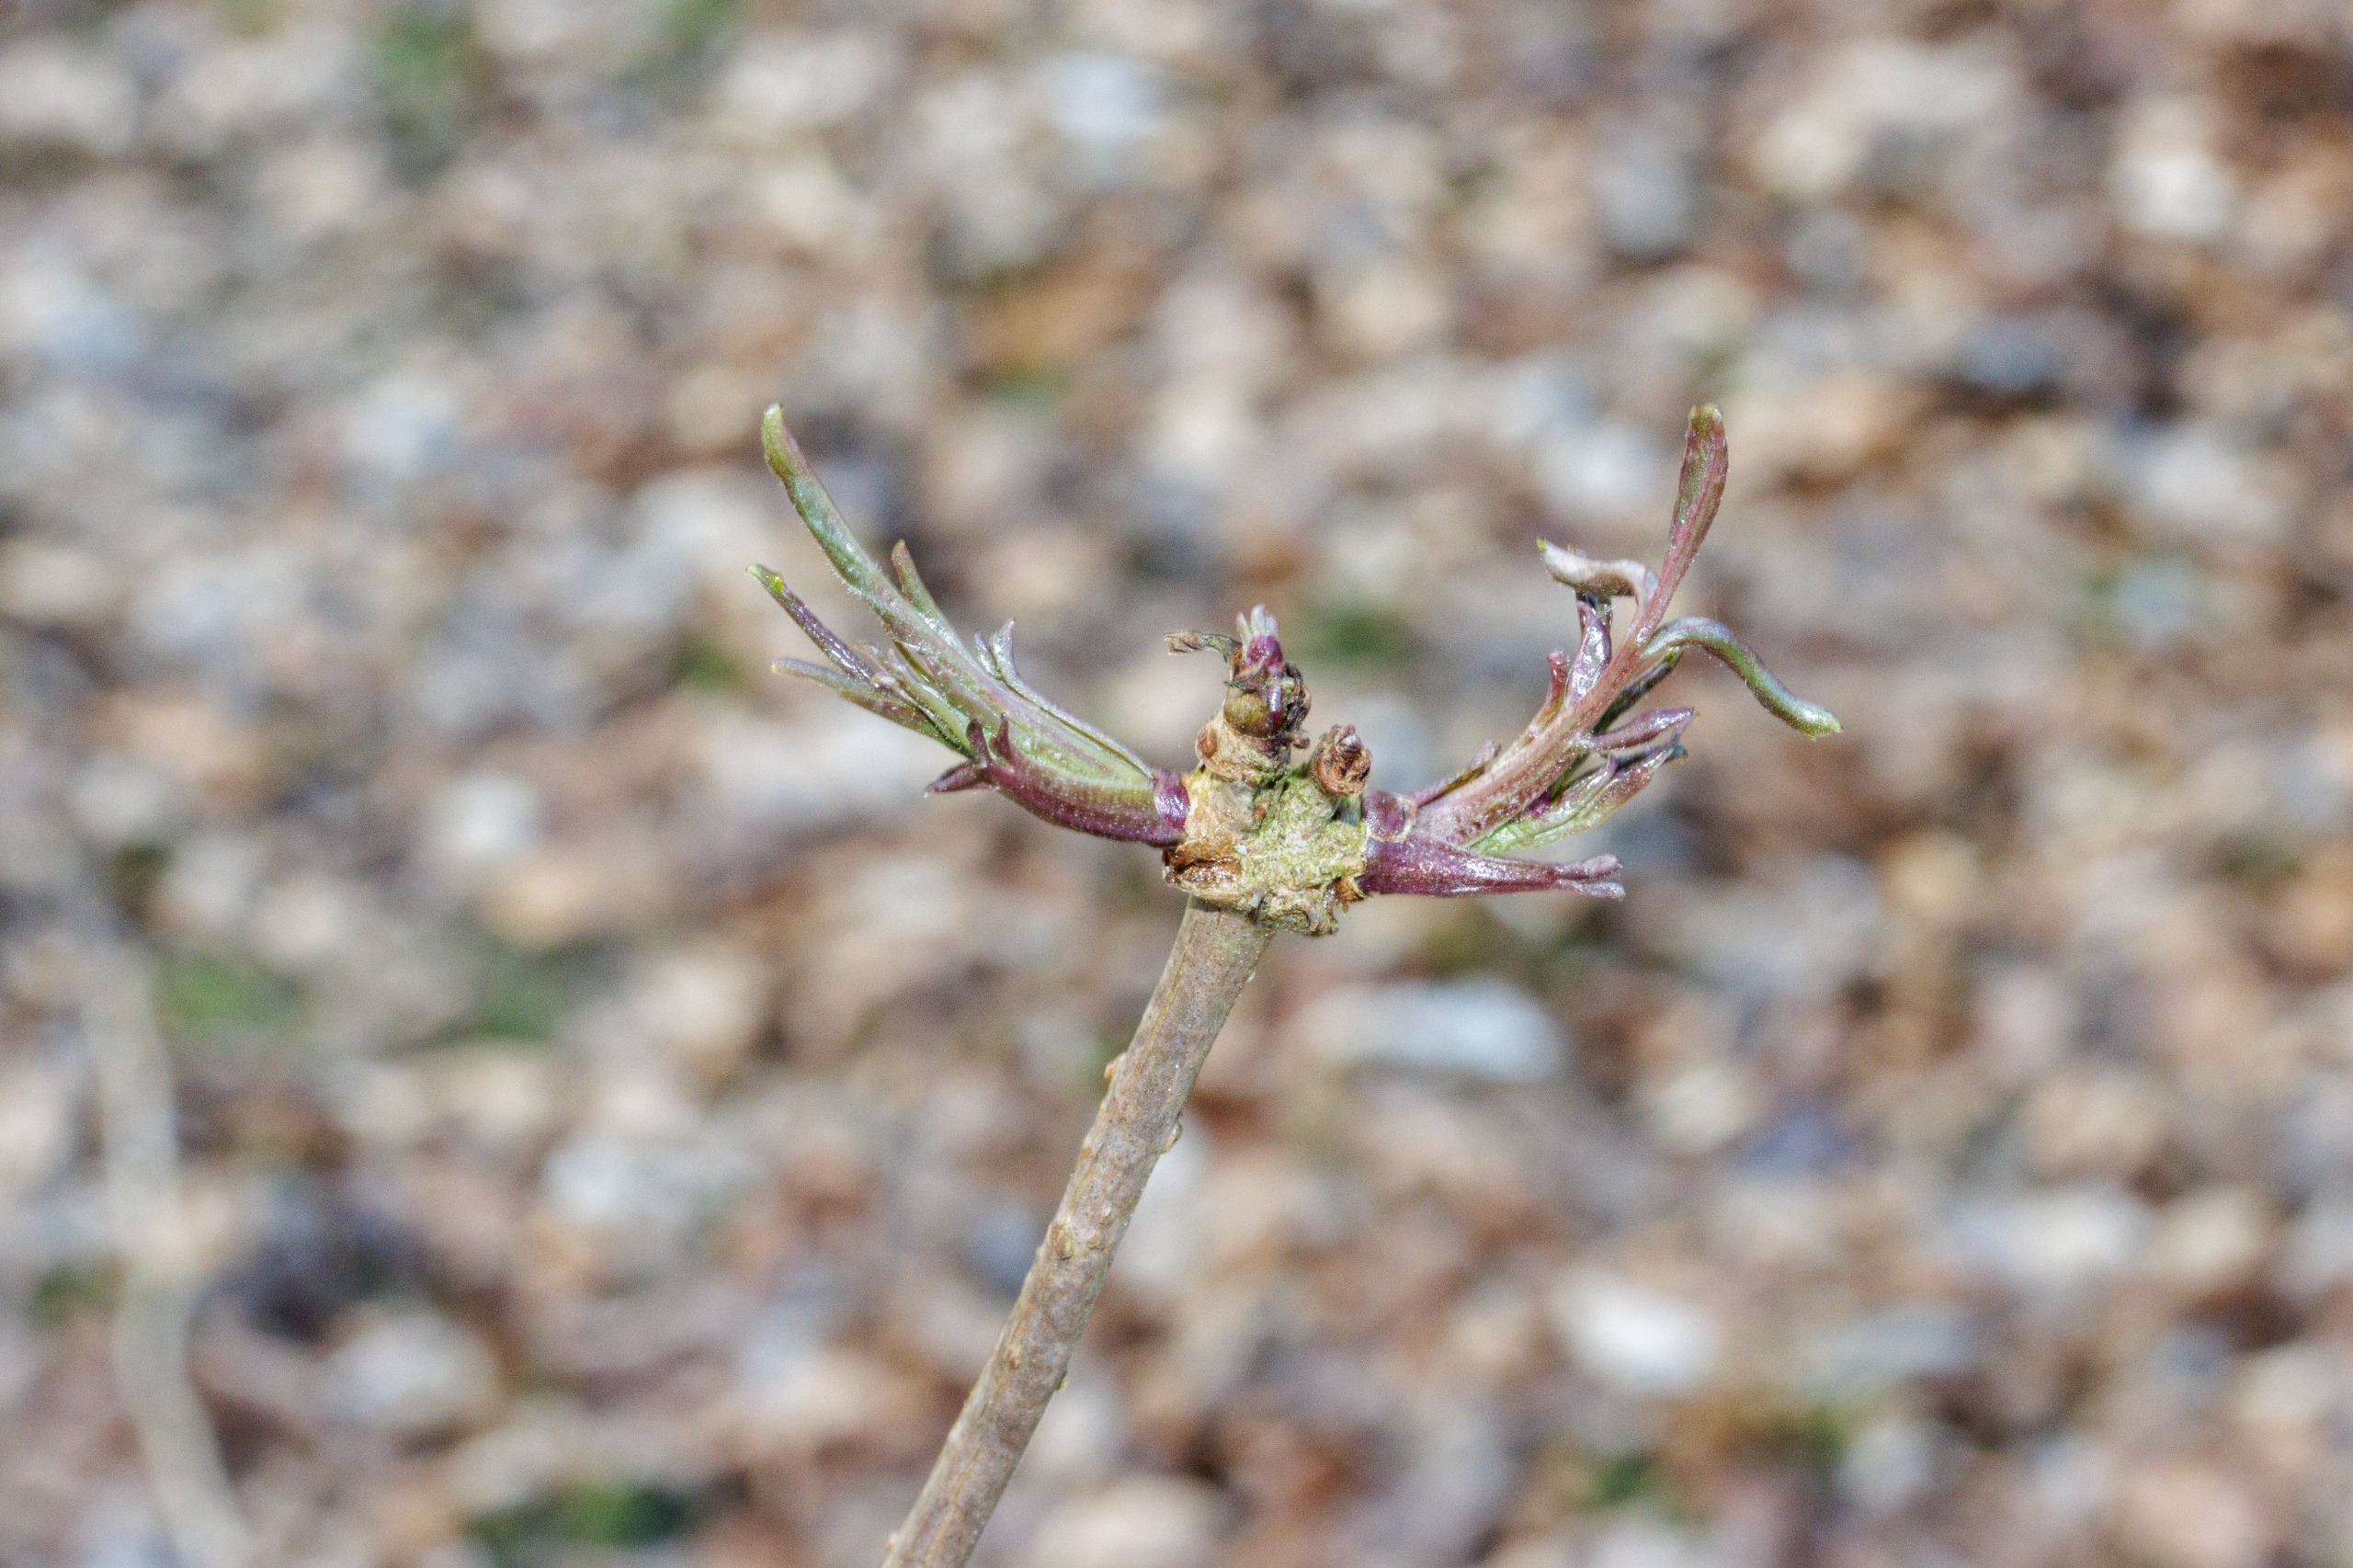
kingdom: Plantae
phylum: Tracheophyta
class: Magnoliopsida
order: Dipsacales
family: Viburnaceae
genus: Sambucus
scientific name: Sambucus nigra
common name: Almindelig hyld
